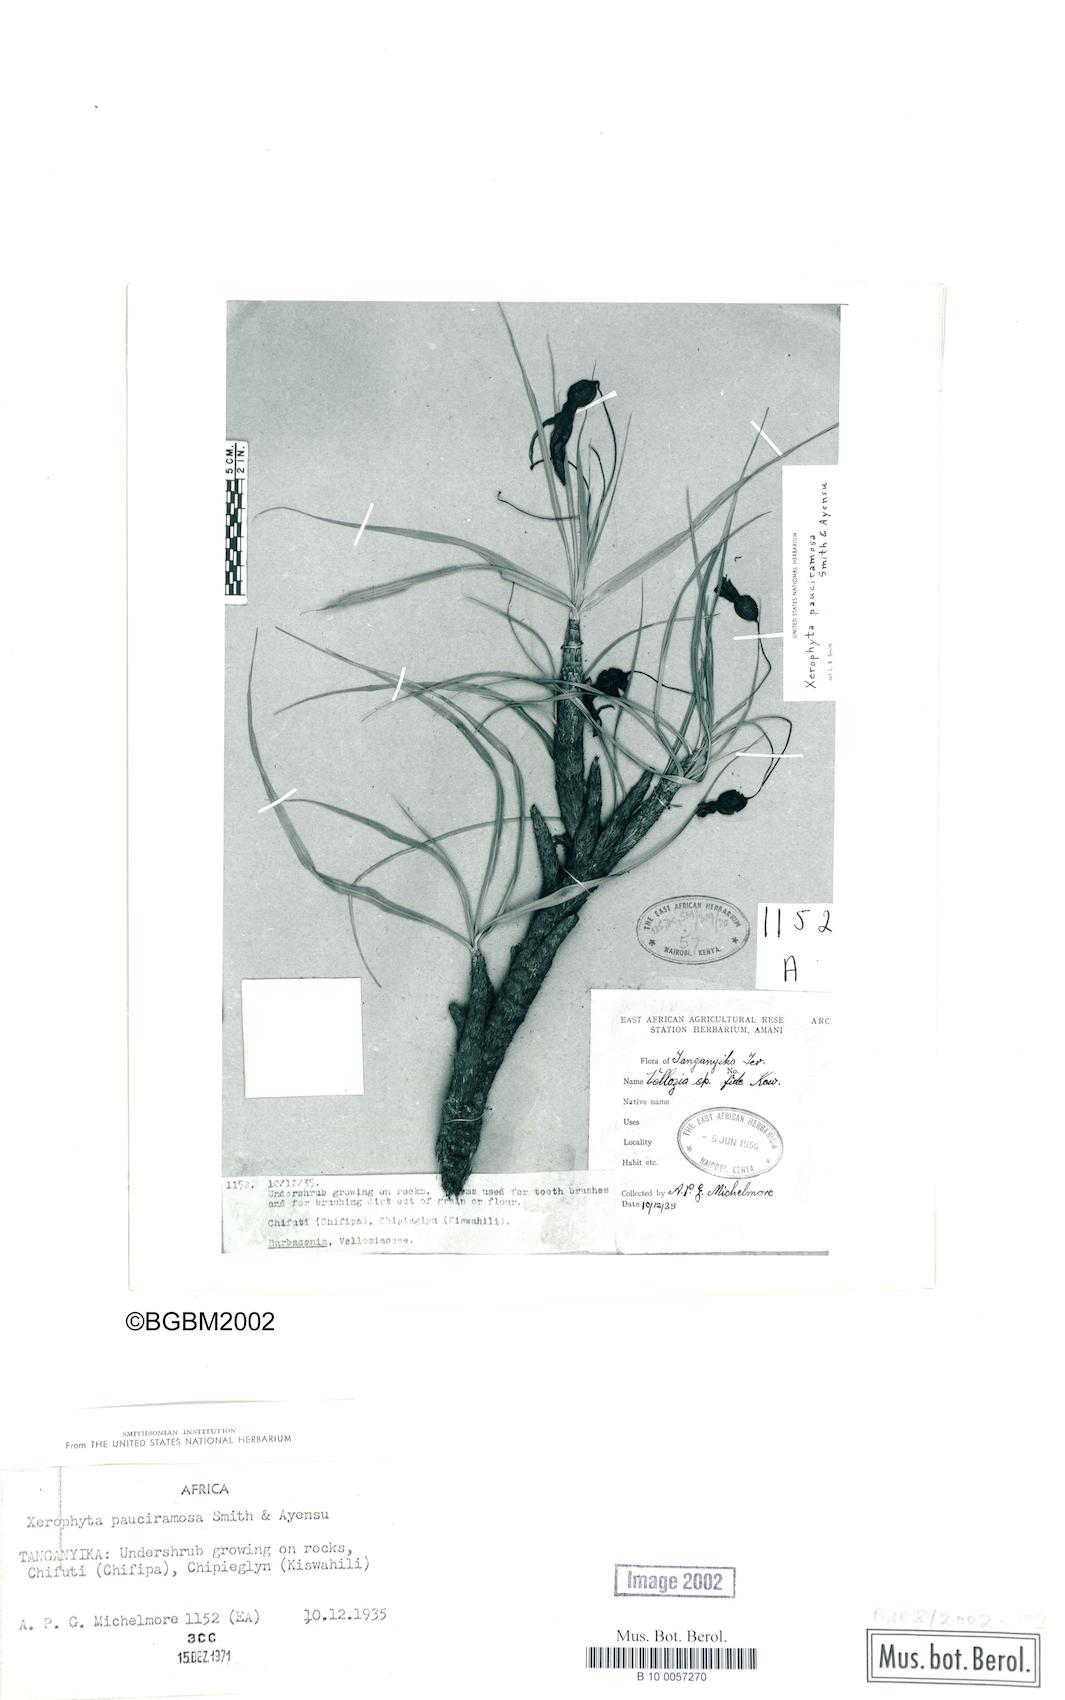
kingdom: Plantae
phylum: Tracheophyta
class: Liliopsida
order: Pandanales
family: Velloziaceae
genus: Xerophyta
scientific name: Xerophyta pauciramosa
